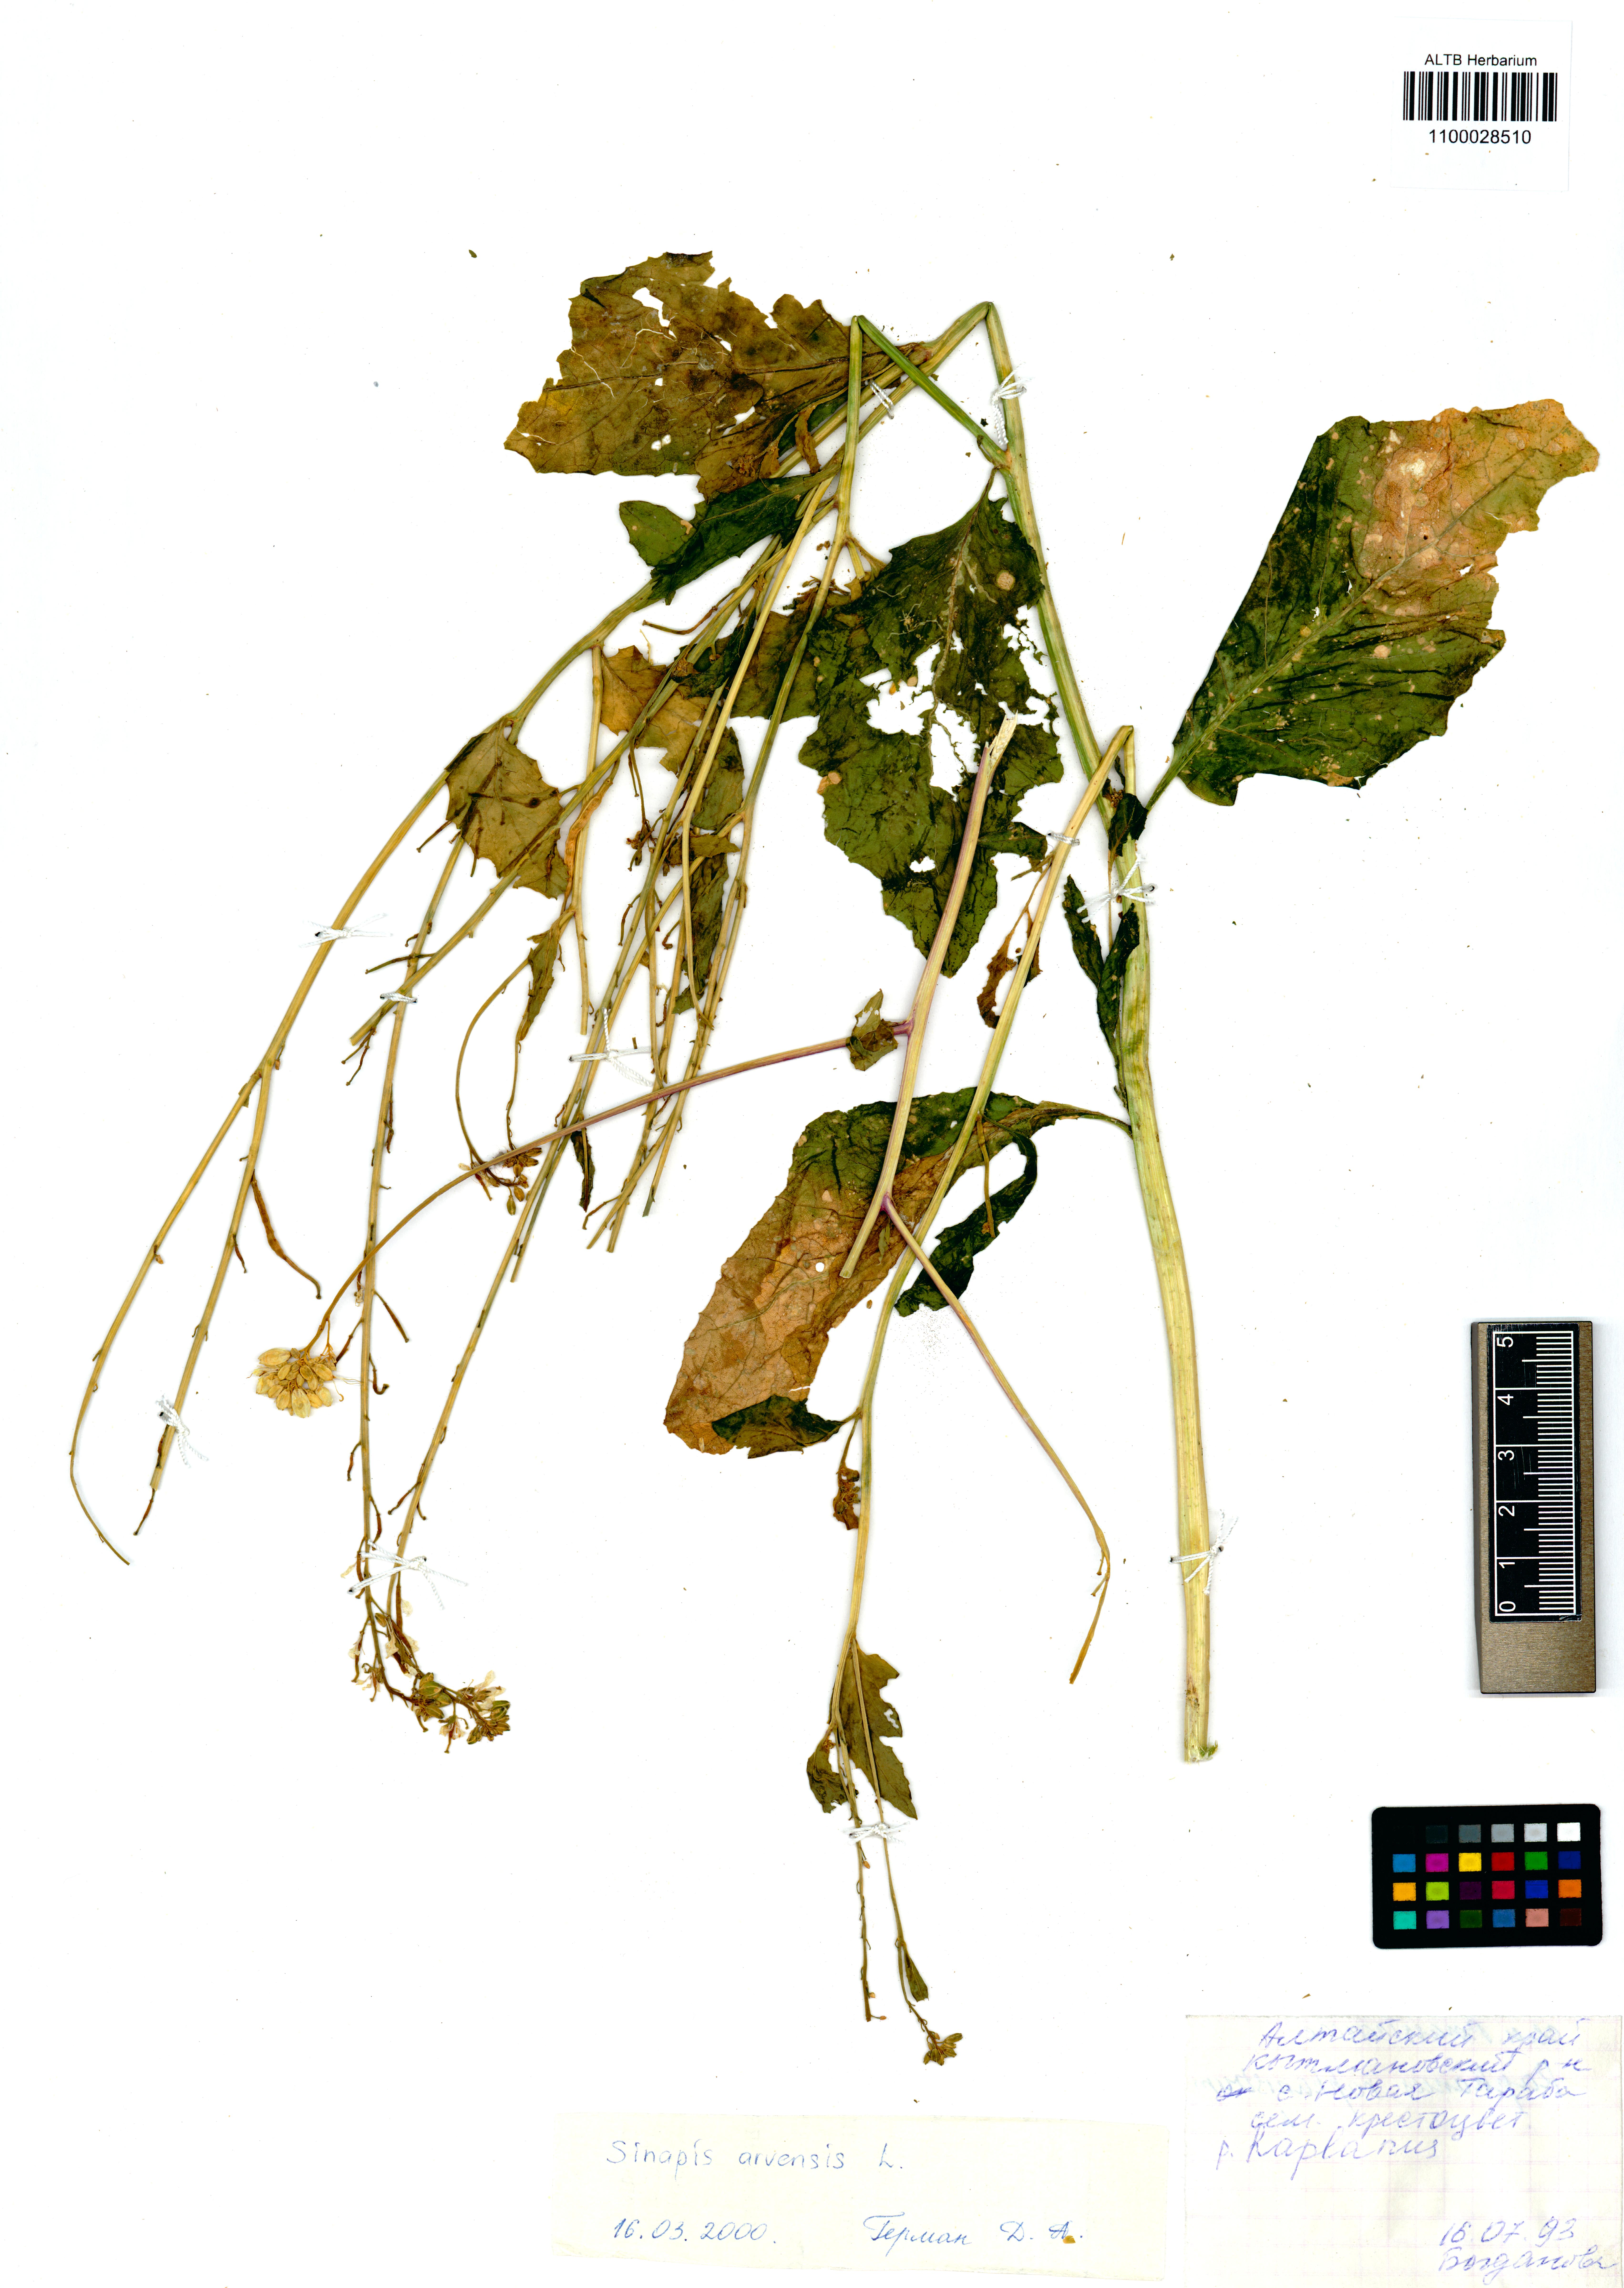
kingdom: Plantae
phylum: Tracheophyta
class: Magnoliopsida
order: Brassicales
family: Brassicaceae
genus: Sinapis
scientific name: Sinapis arvensis
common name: Charlock
